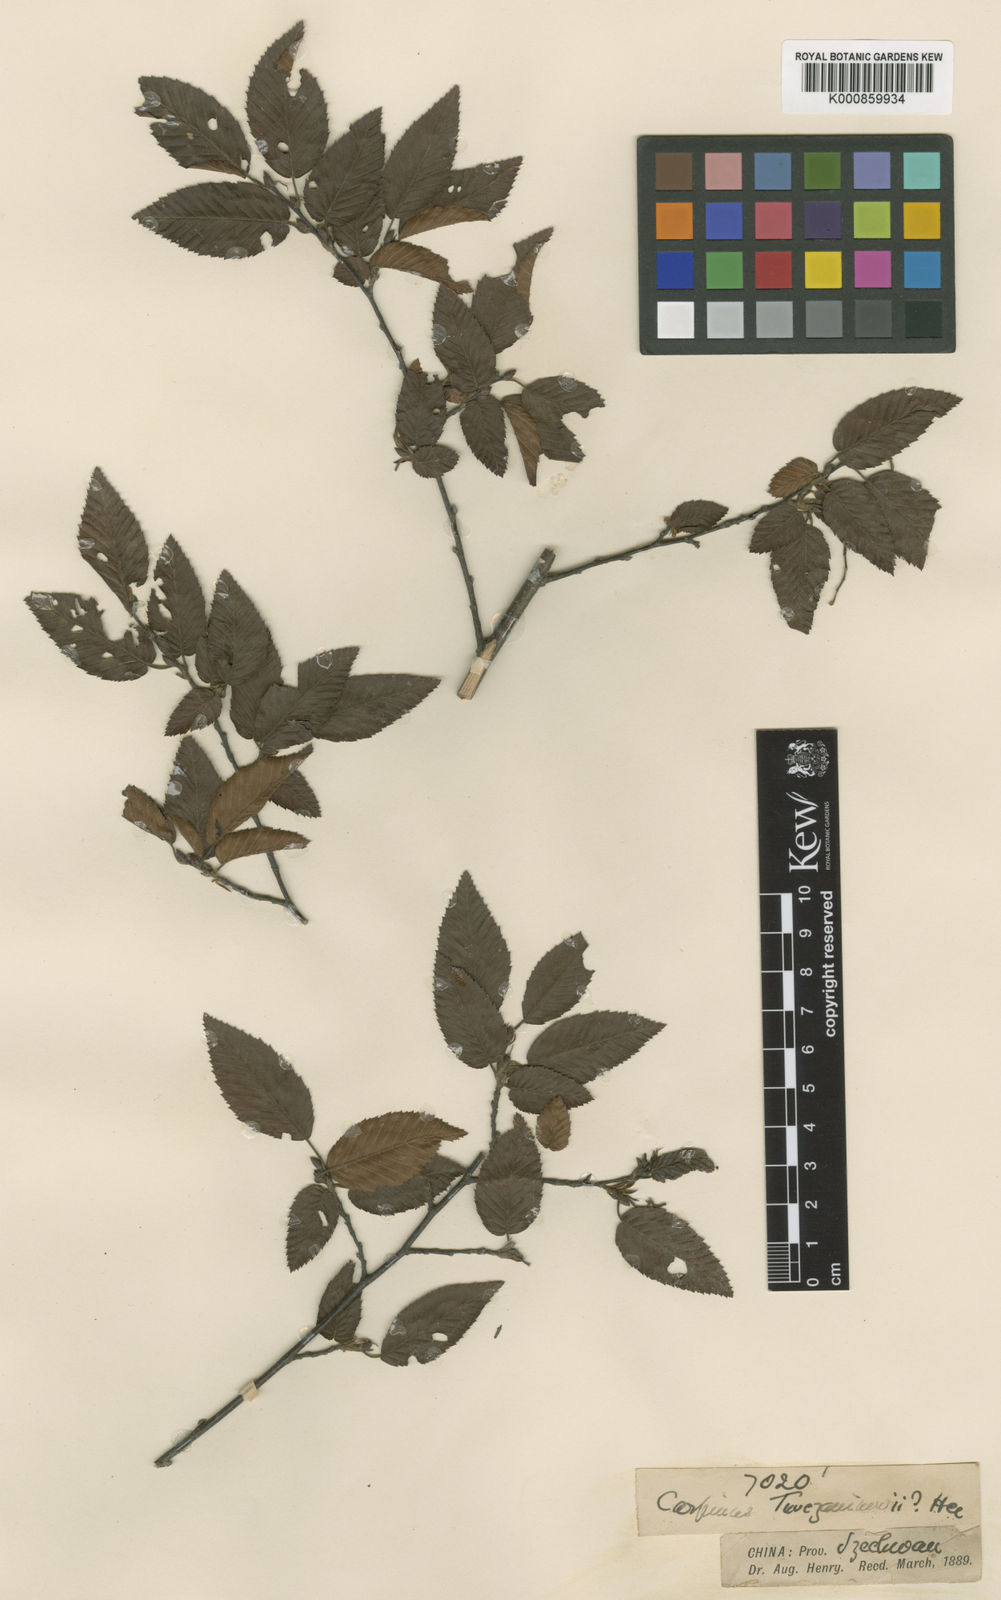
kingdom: Plantae
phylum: Tracheophyta
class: Magnoliopsida
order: Fagales
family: Betulaceae
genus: Carpinus
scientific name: Carpinus
